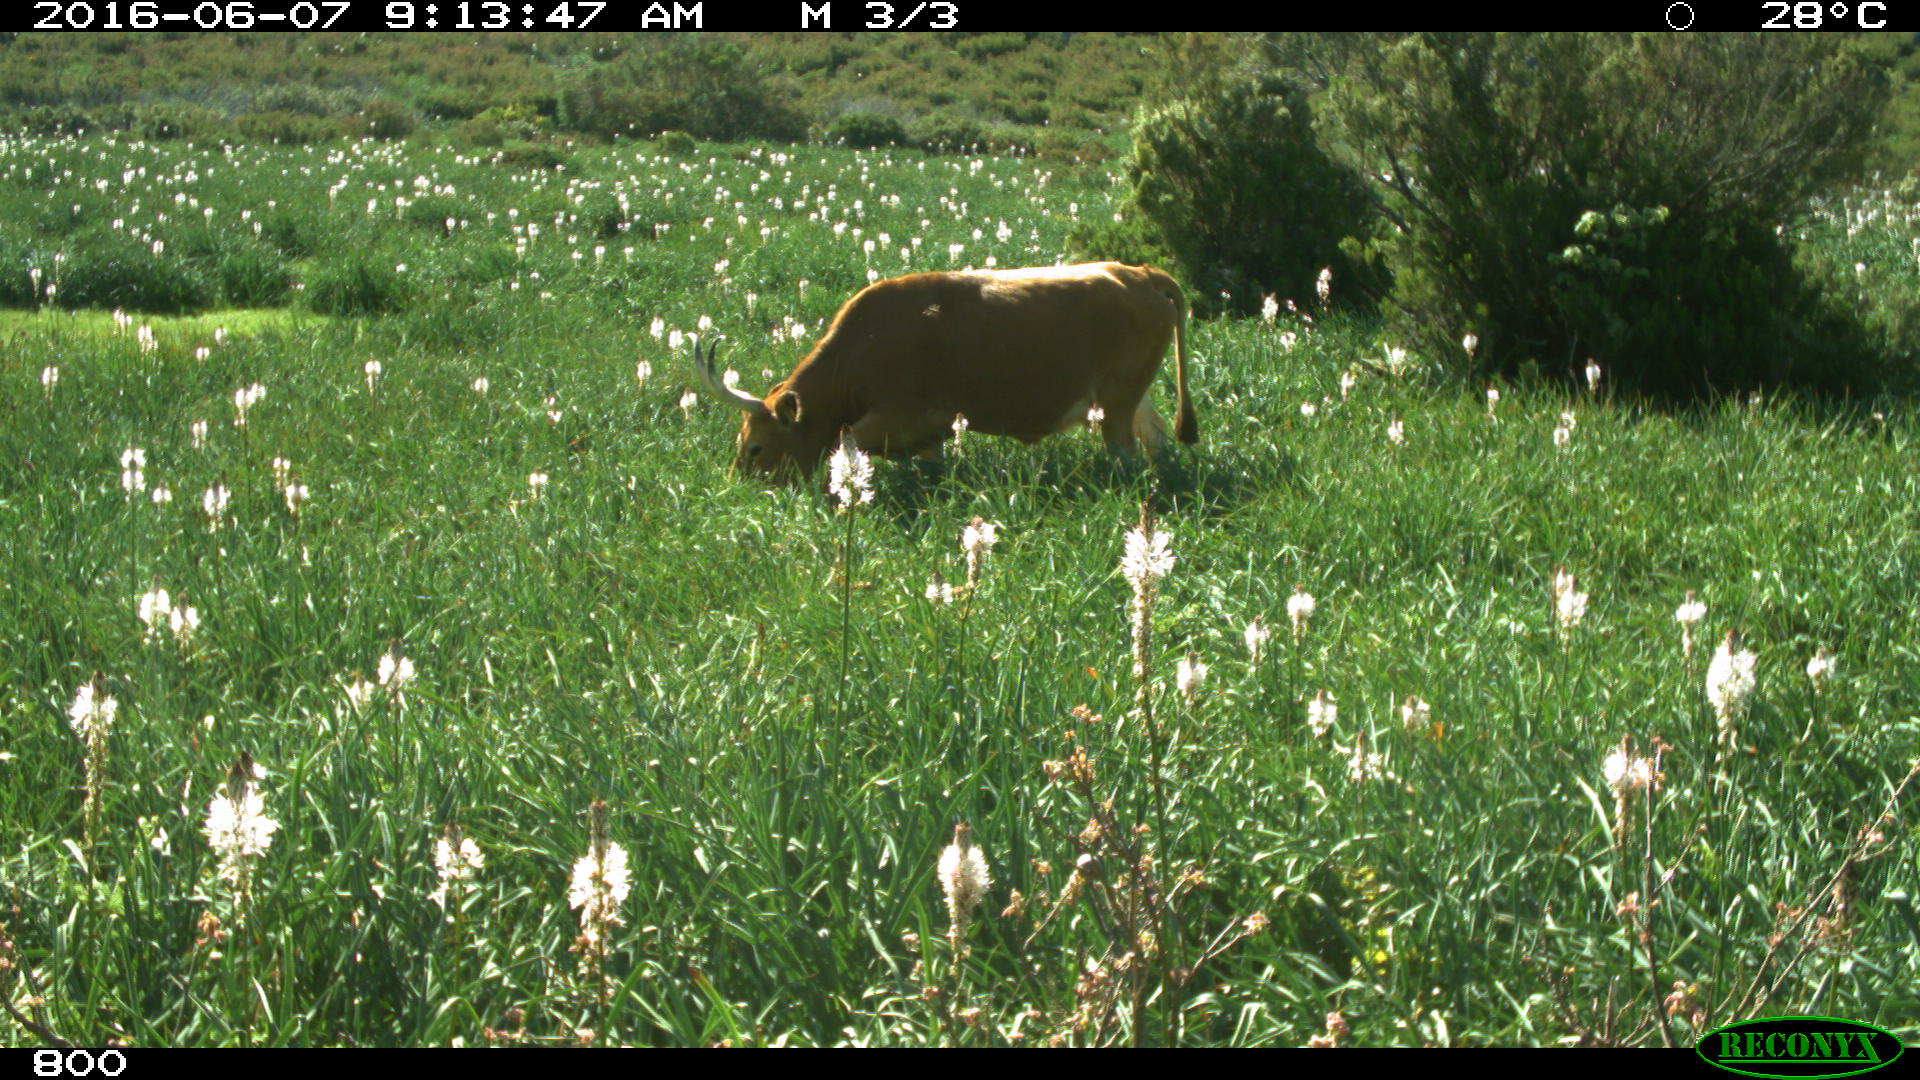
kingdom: Animalia
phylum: Chordata
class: Mammalia
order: Artiodactyla
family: Bovidae
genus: Bos
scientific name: Bos taurus
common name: Domesticated cattle
